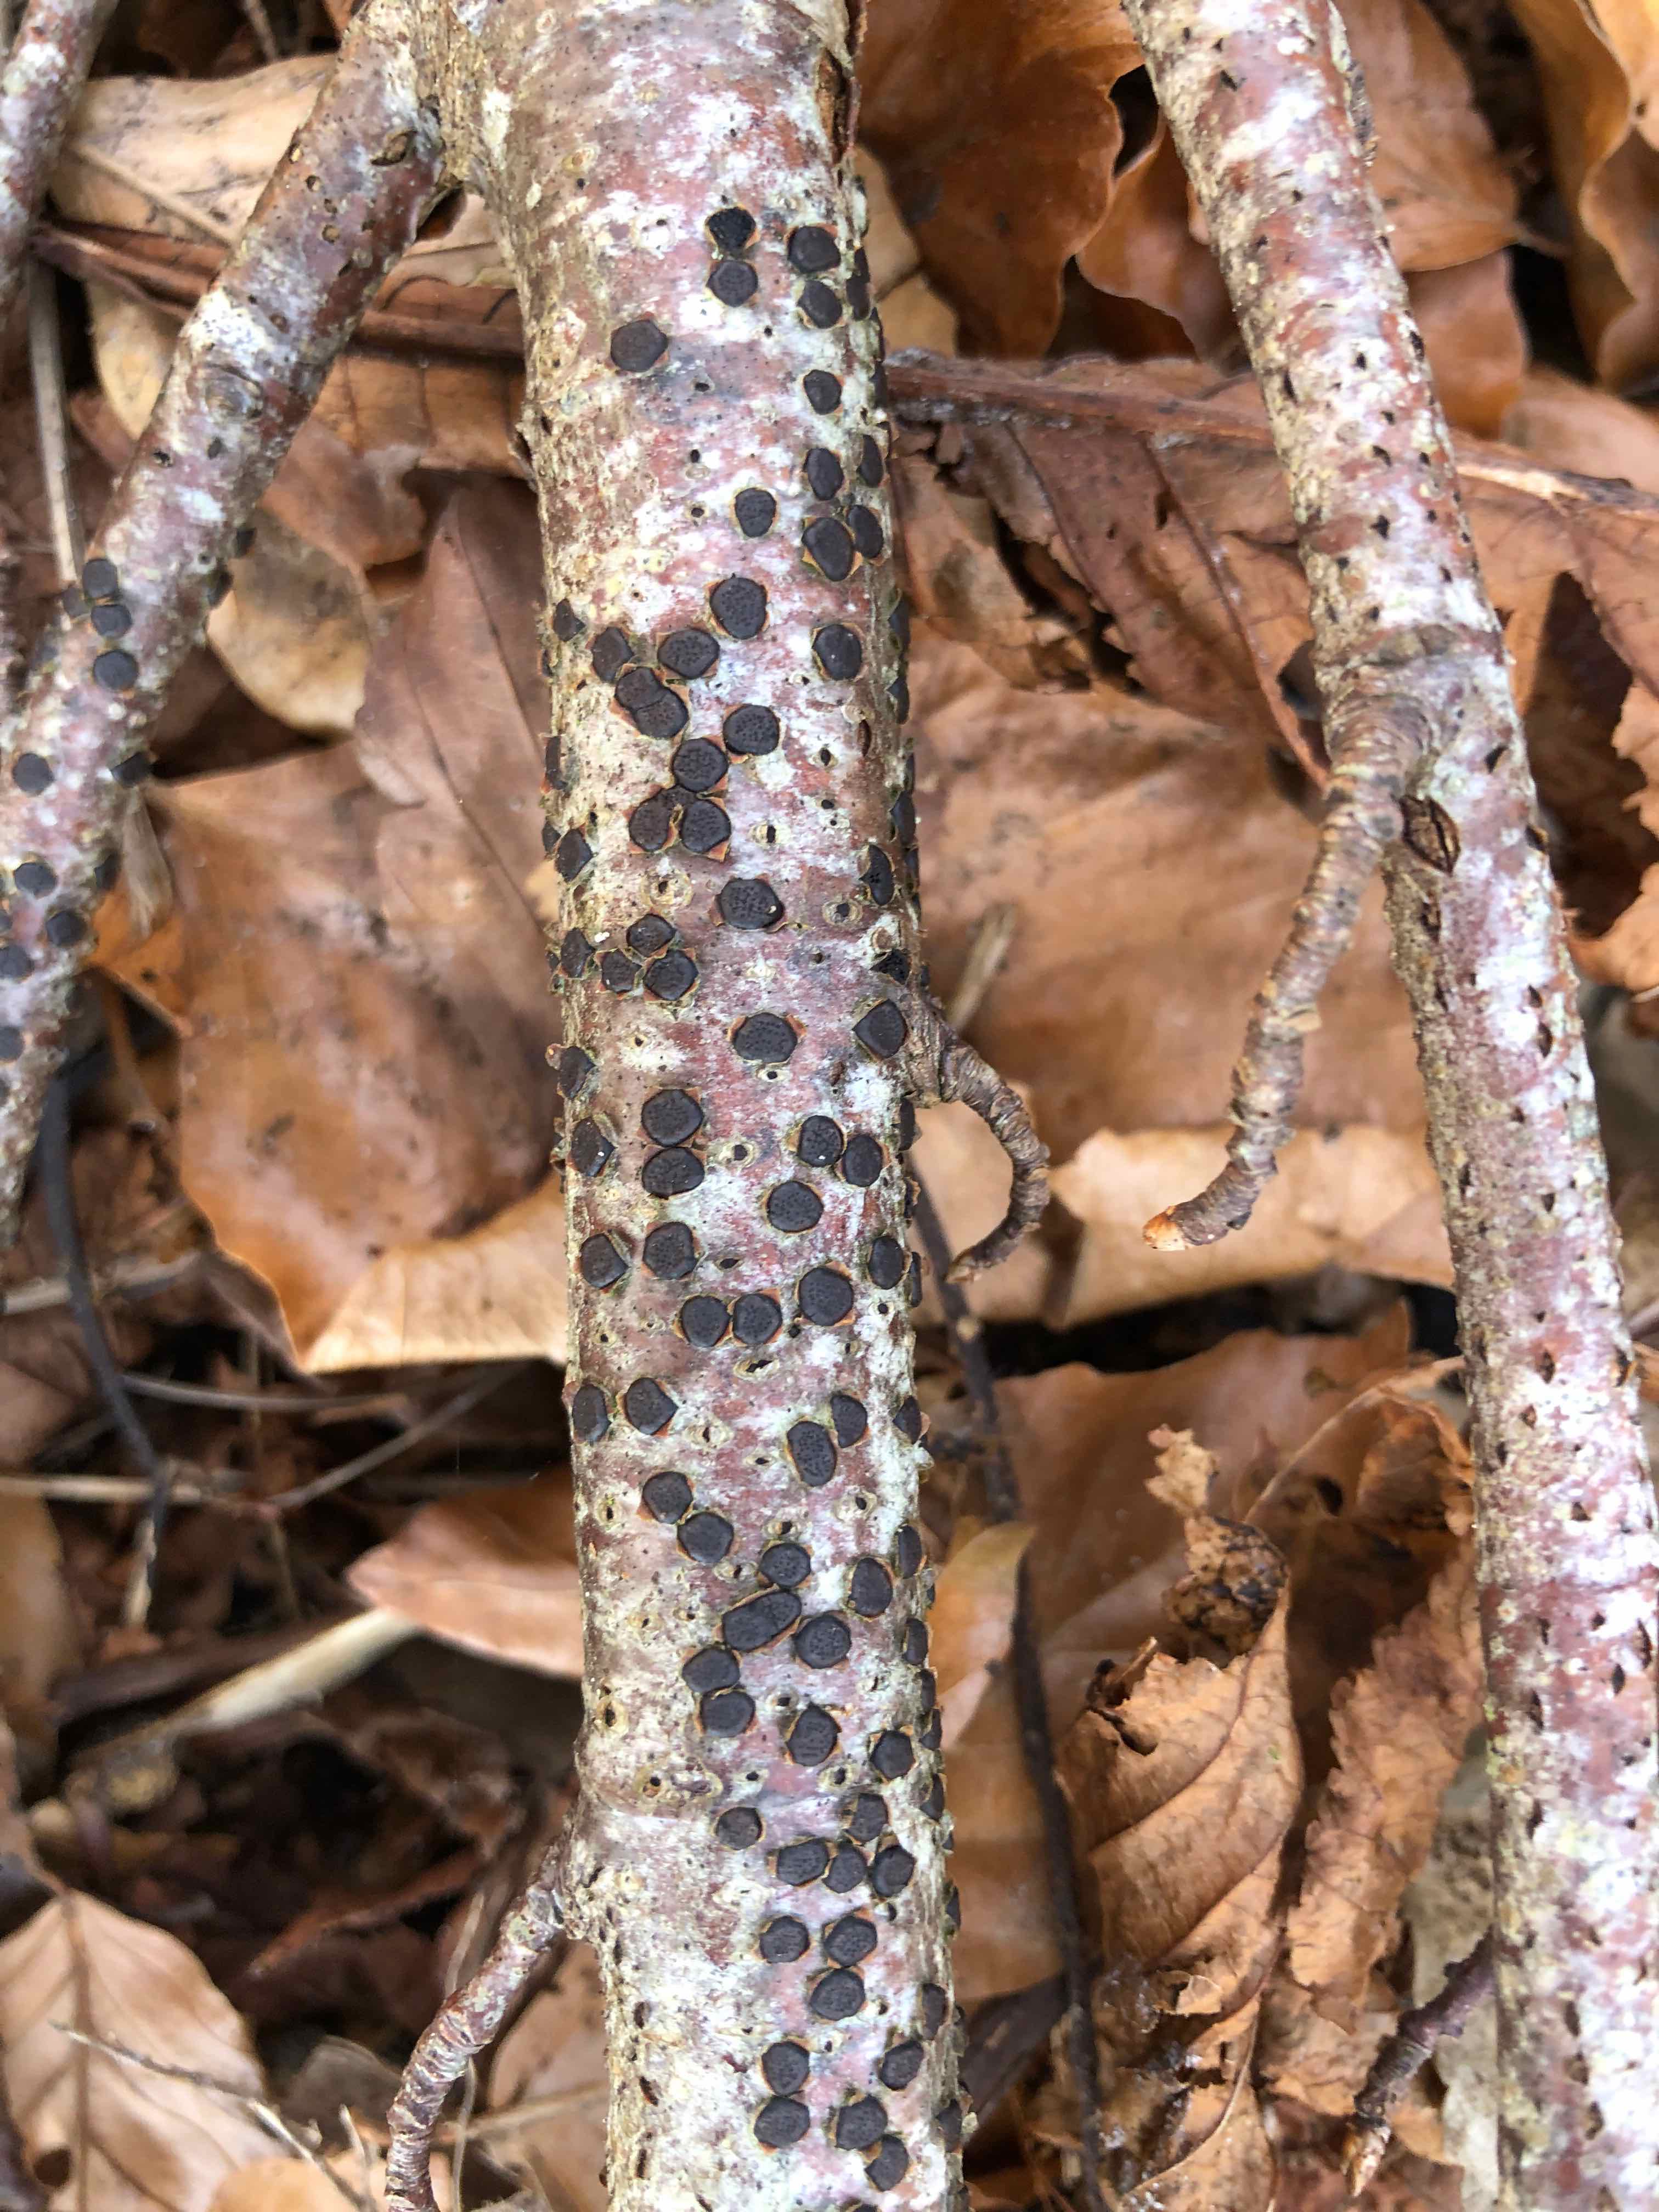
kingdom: Fungi
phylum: Ascomycota
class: Sordariomycetes
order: Xylariales
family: Diatrypaceae
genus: Diatrype
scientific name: Diatrype disciformis
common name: kant-kulskorpe
